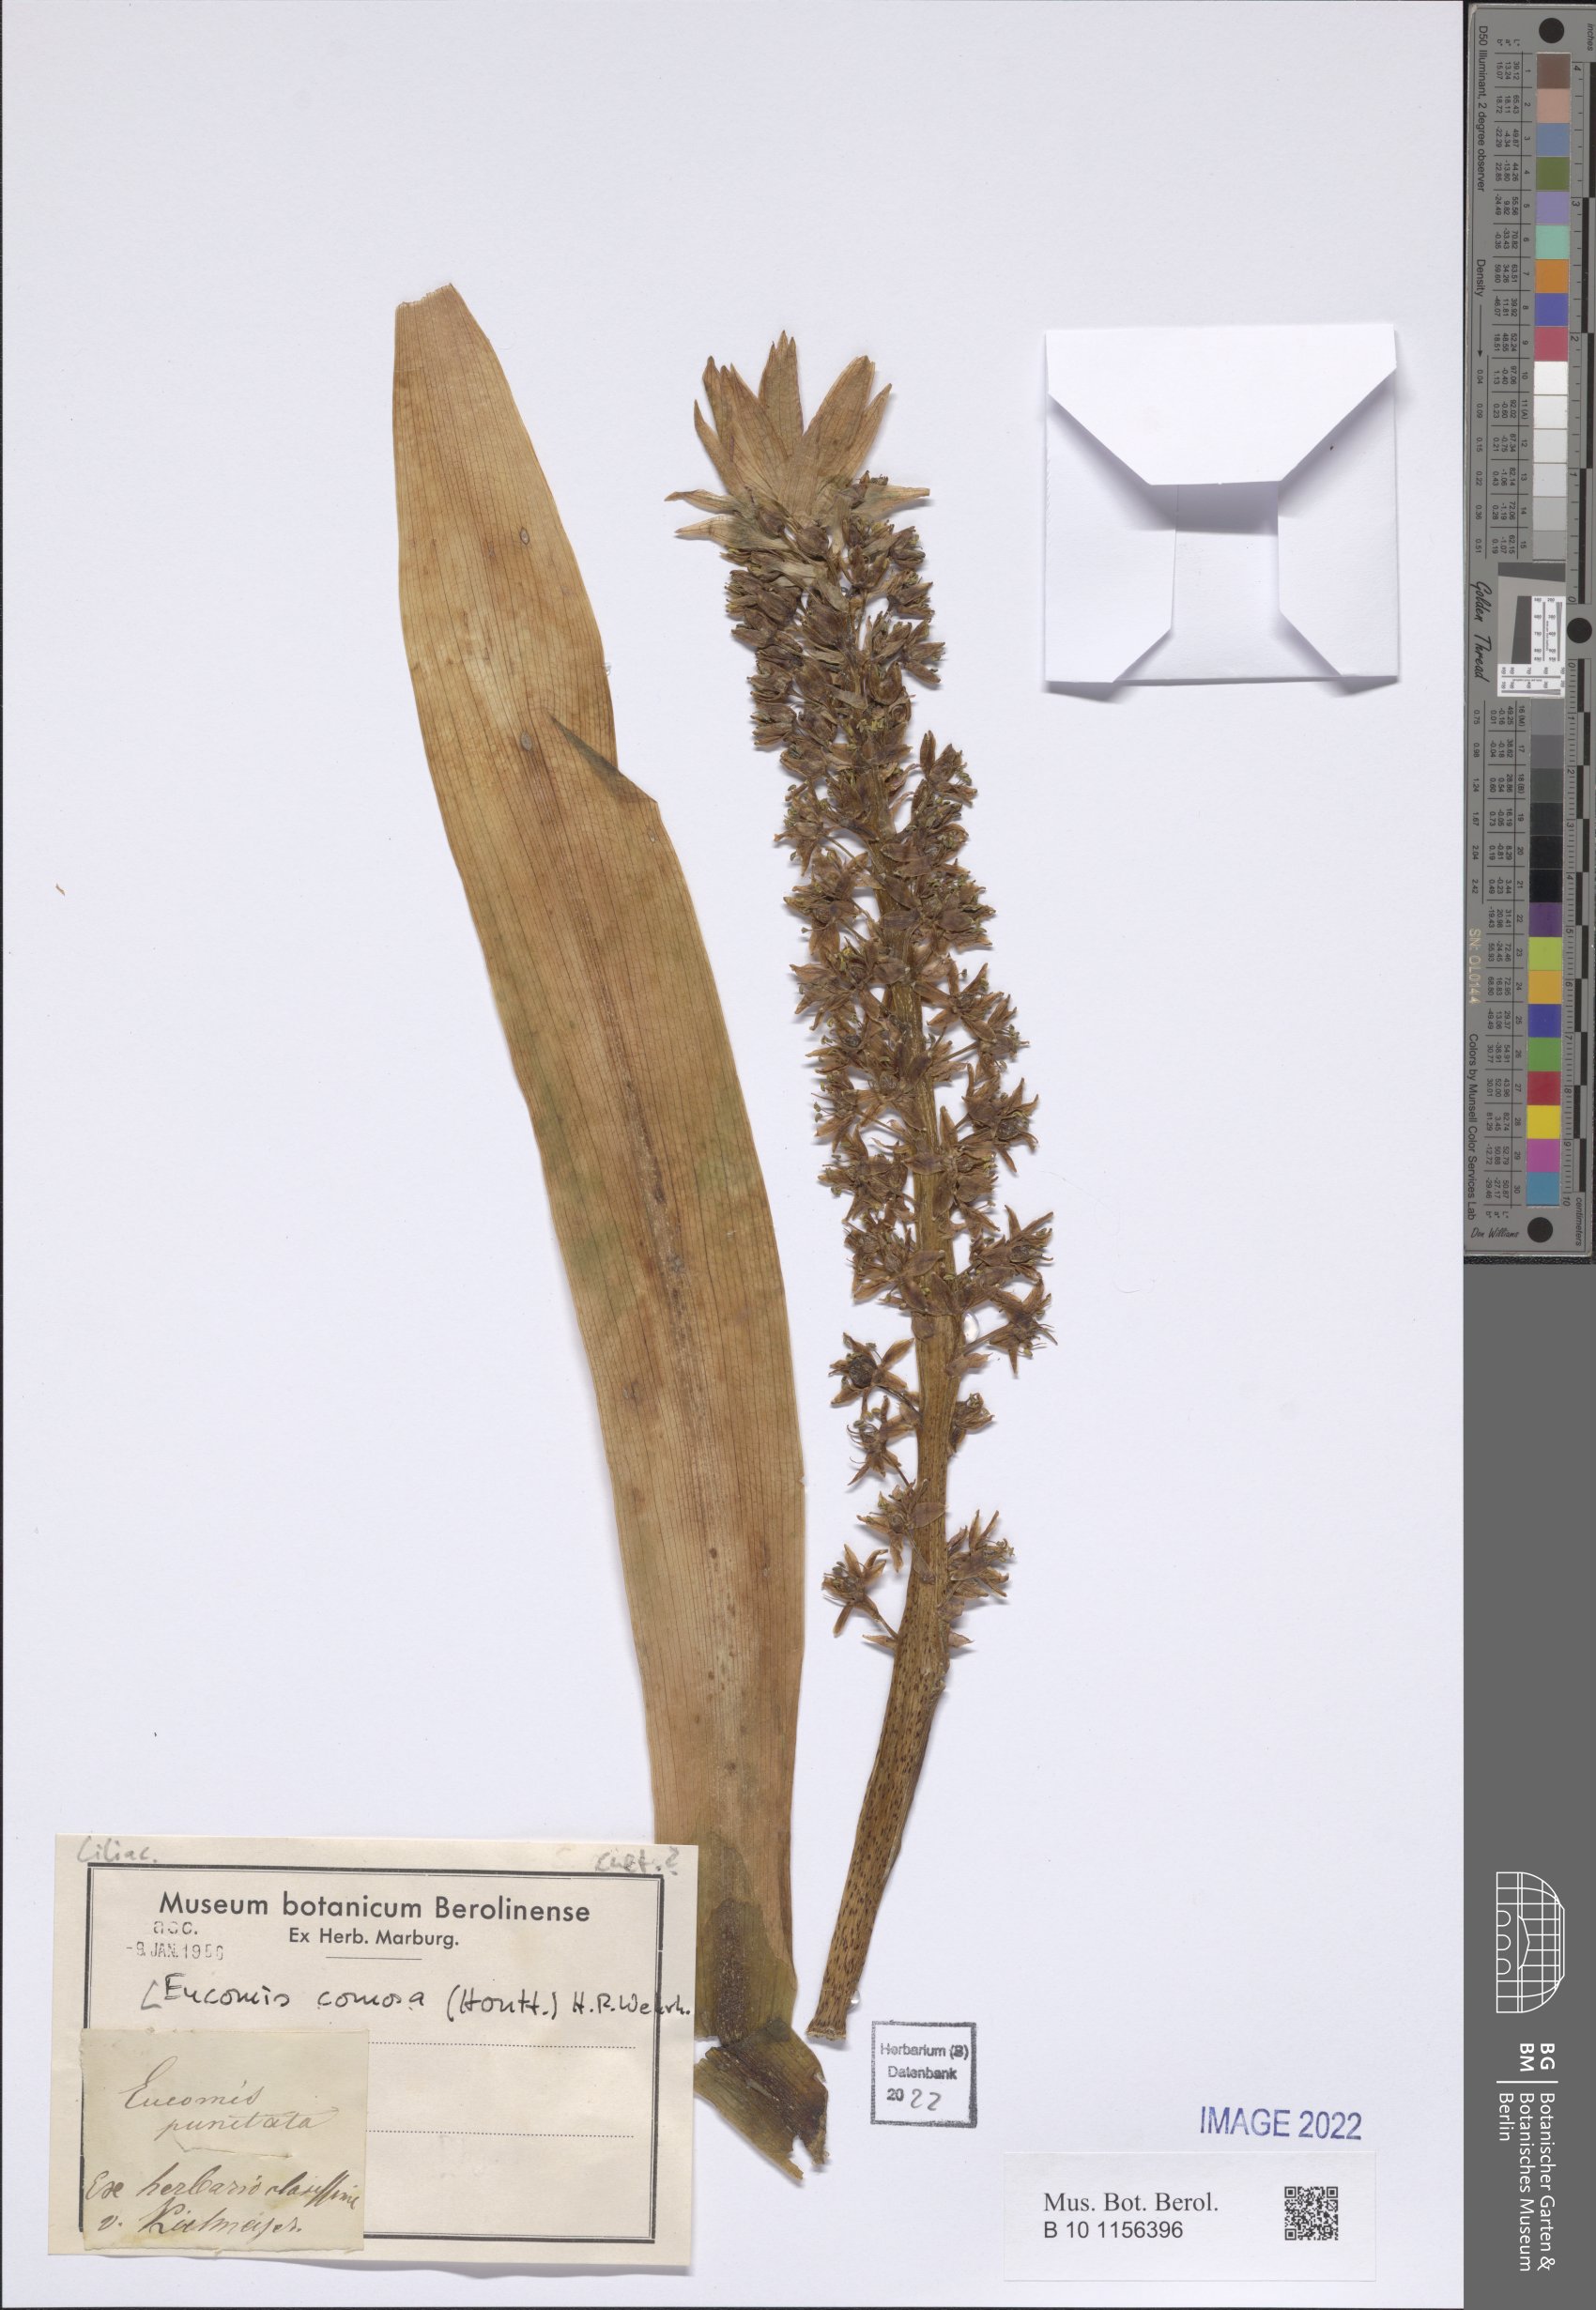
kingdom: Plantae
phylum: Tracheophyta
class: Liliopsida
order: Asparagales
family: Asparagaceae
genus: Eucomis
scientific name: Eucomis comosa
